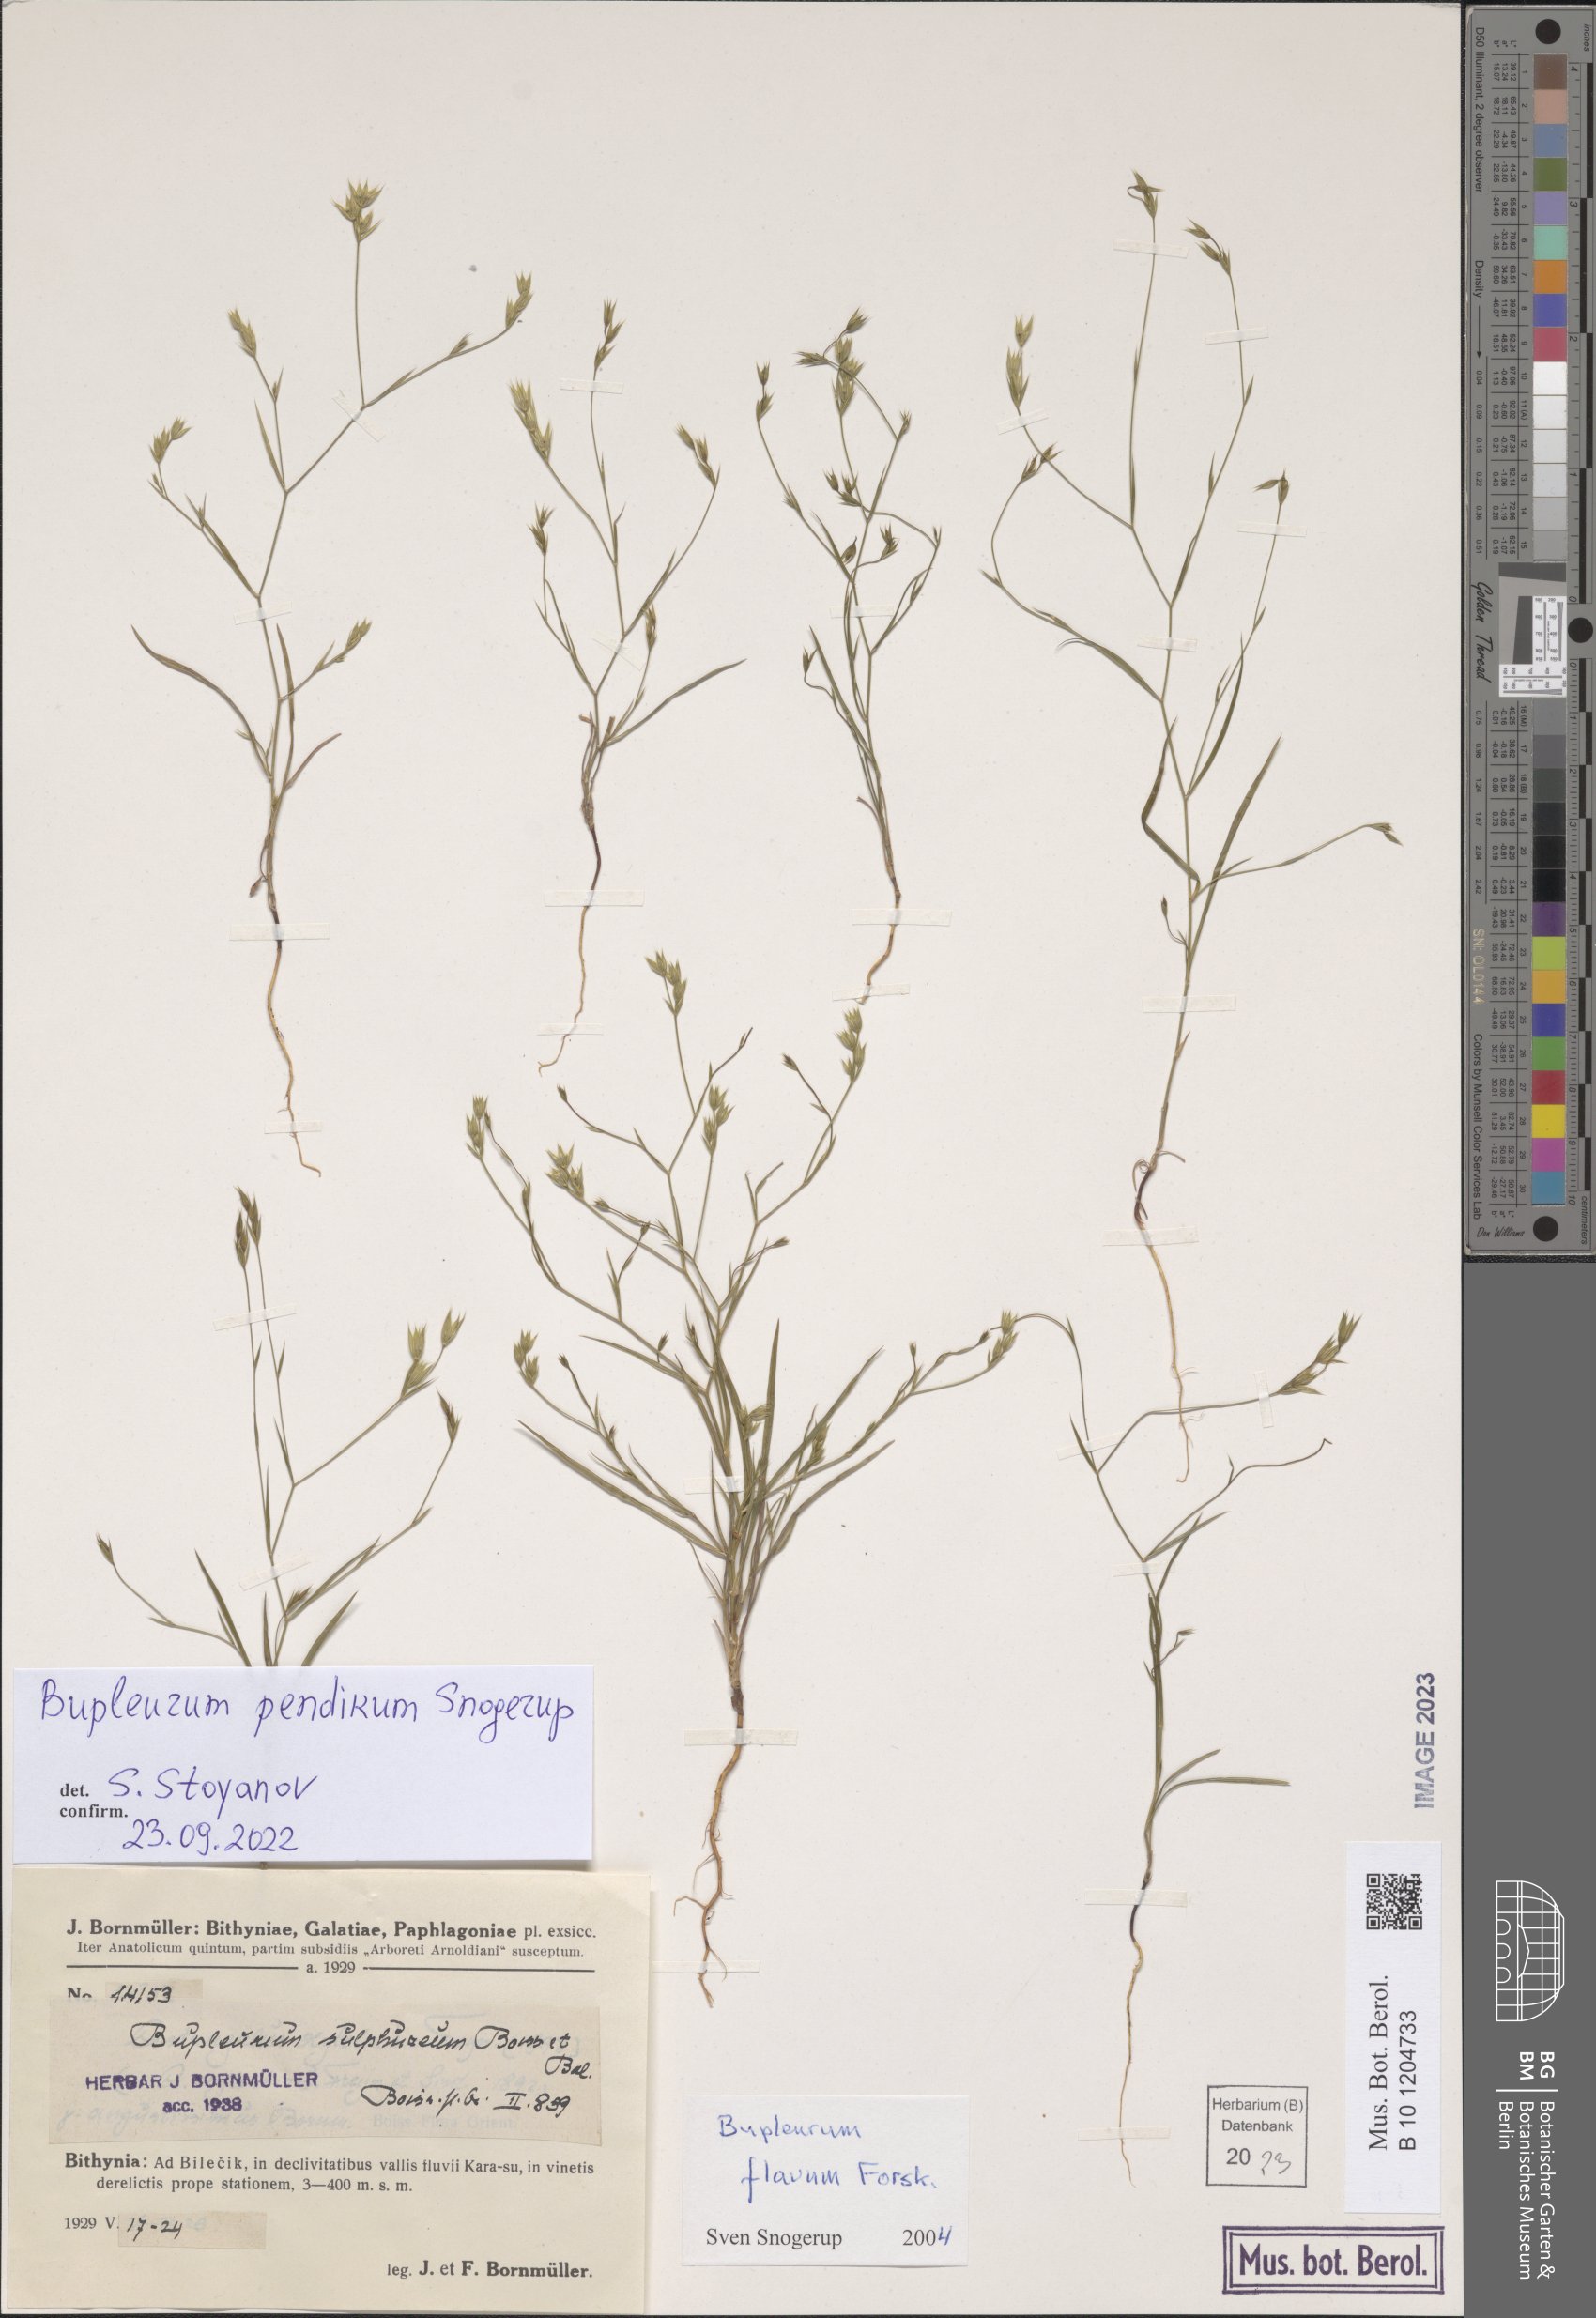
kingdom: Plantae
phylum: Tracheophyta
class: Magnoliopsida
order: Apiales
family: Apiaceae
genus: Bupleurum
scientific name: Bupleurum pendikum
